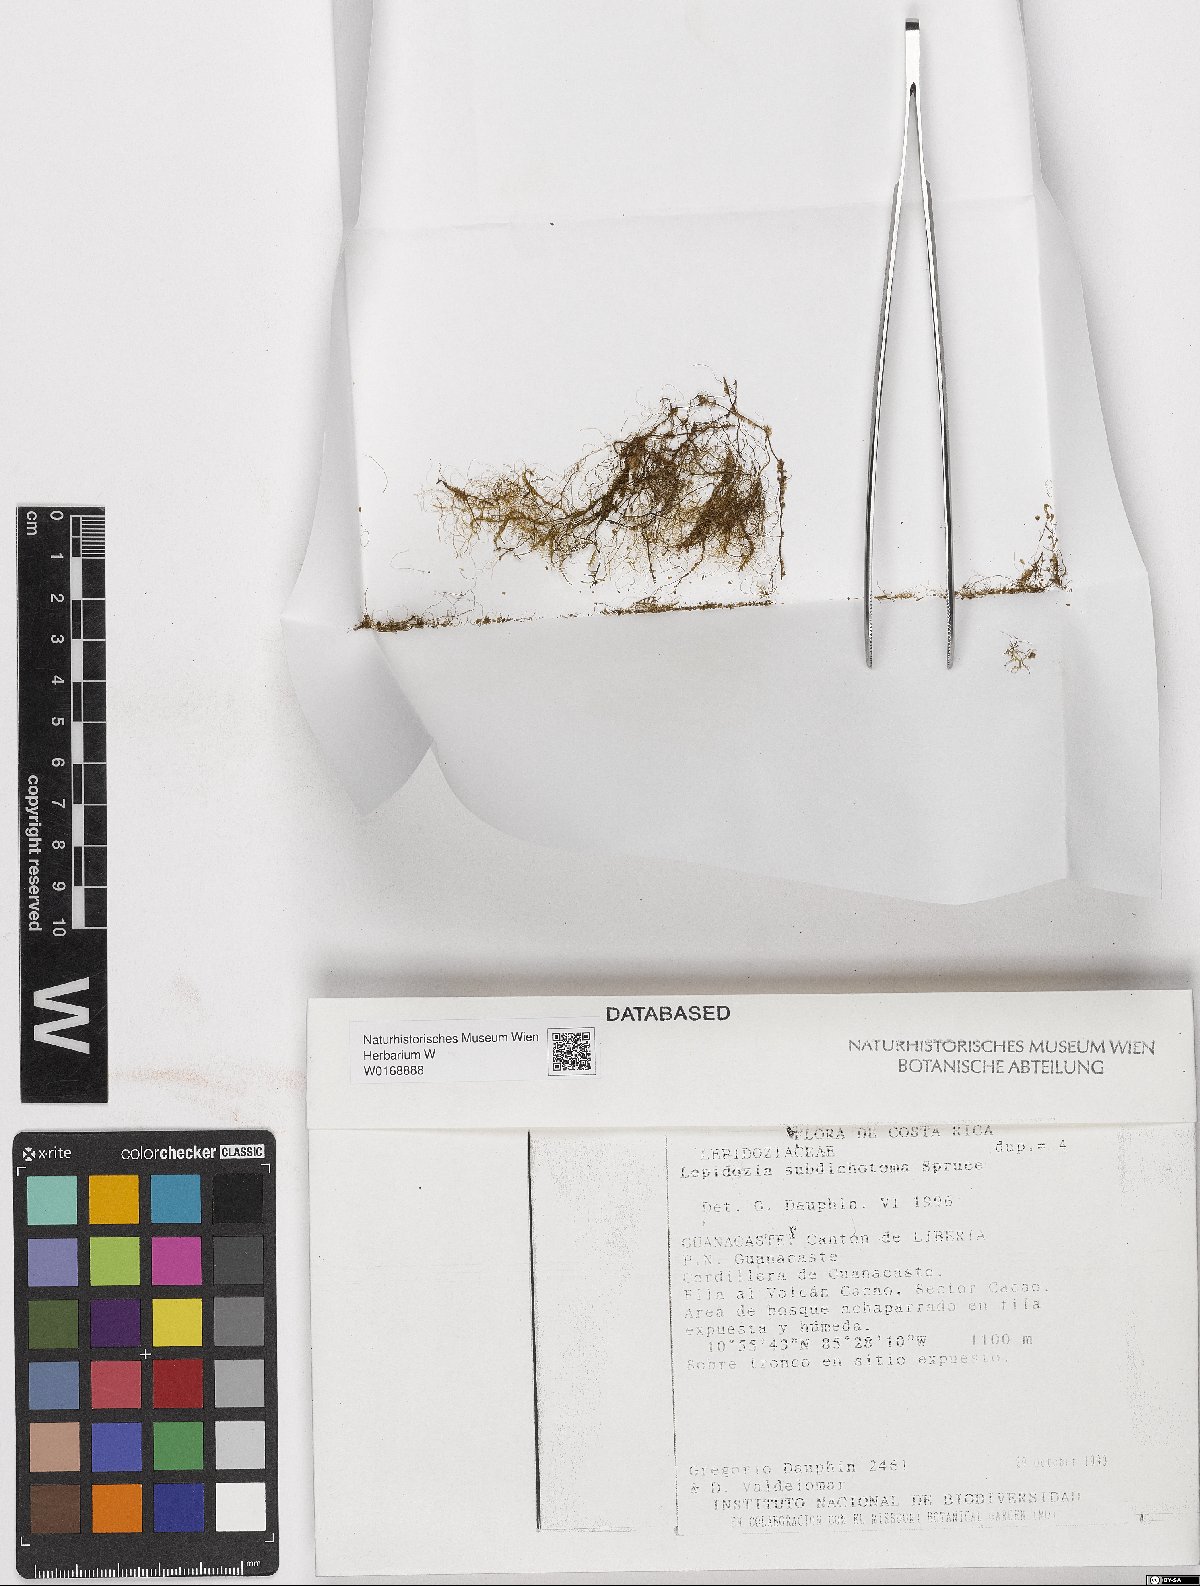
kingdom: Plantae
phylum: Marchantiophyta
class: Jungermanniopsida
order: Jungermanniales
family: Lepidoziaceae
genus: Lepidozia
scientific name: Lepidozia
